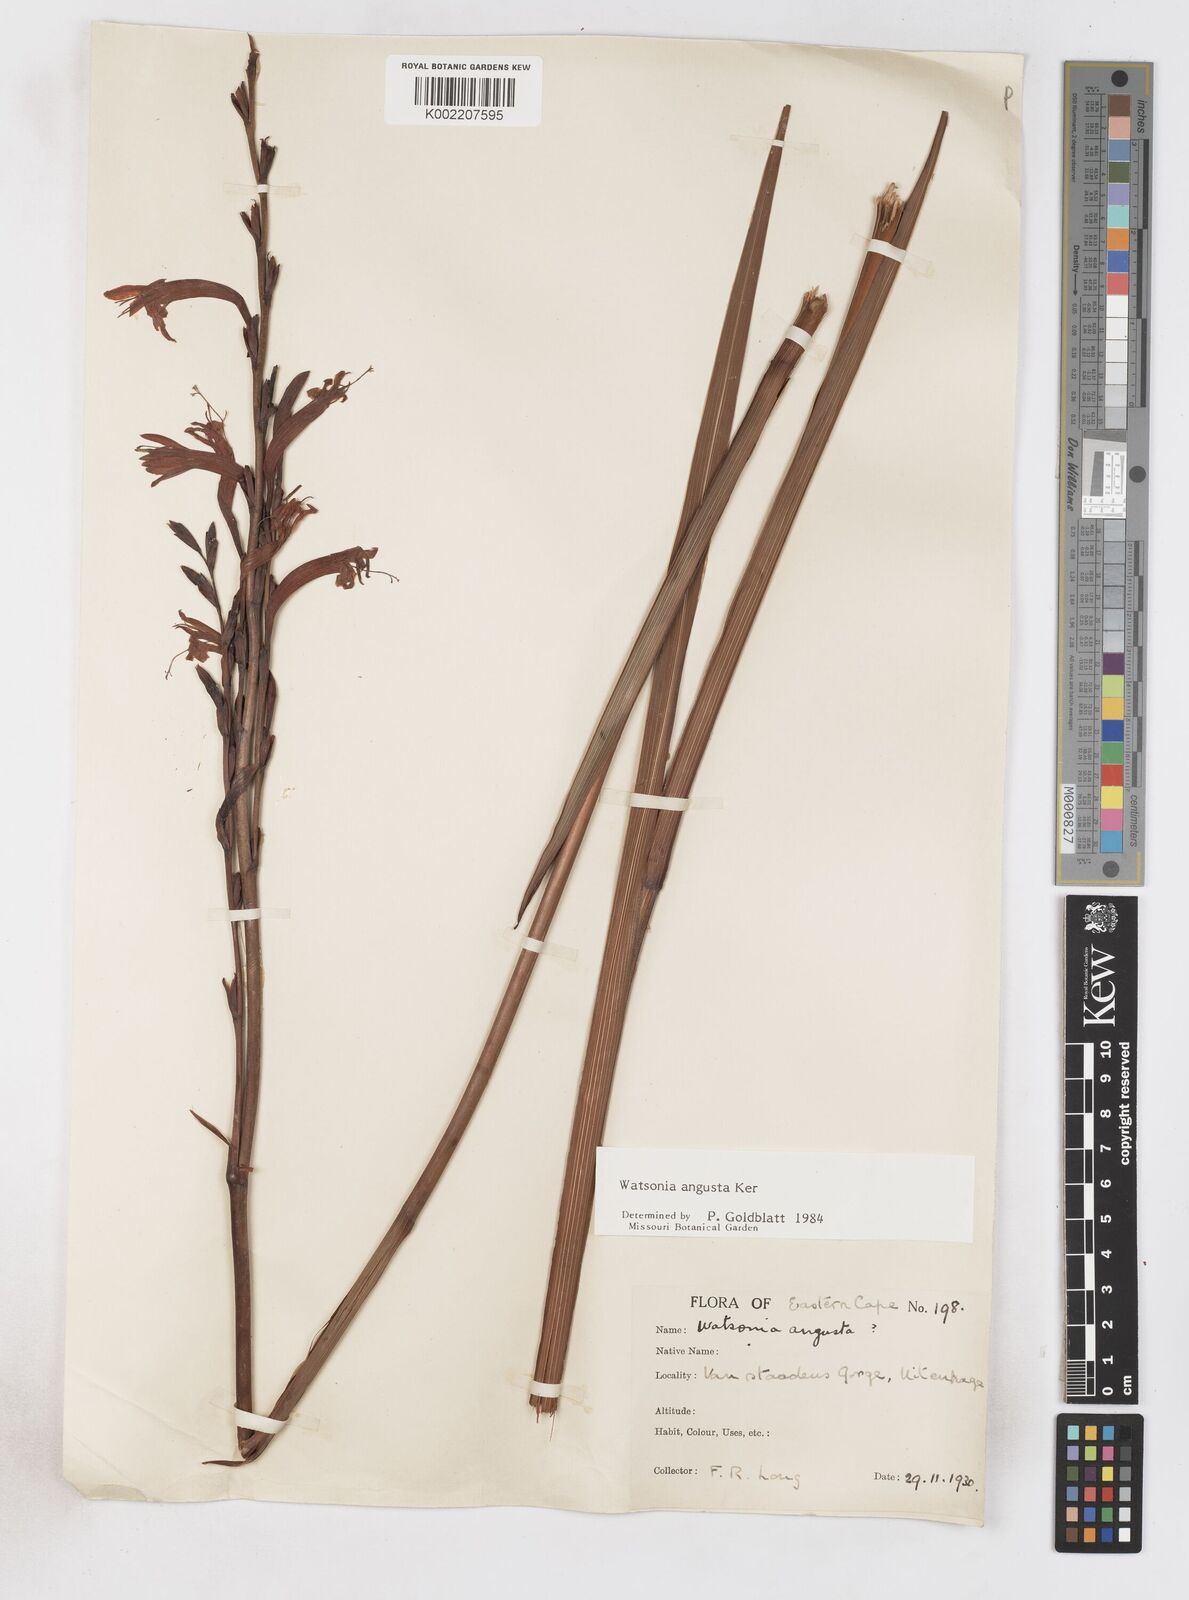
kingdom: Plantae
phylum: Tracheophyta
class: Liliopsida
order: Asparagales
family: Iridaceae
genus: Watsonia
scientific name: Watsonia angusta
